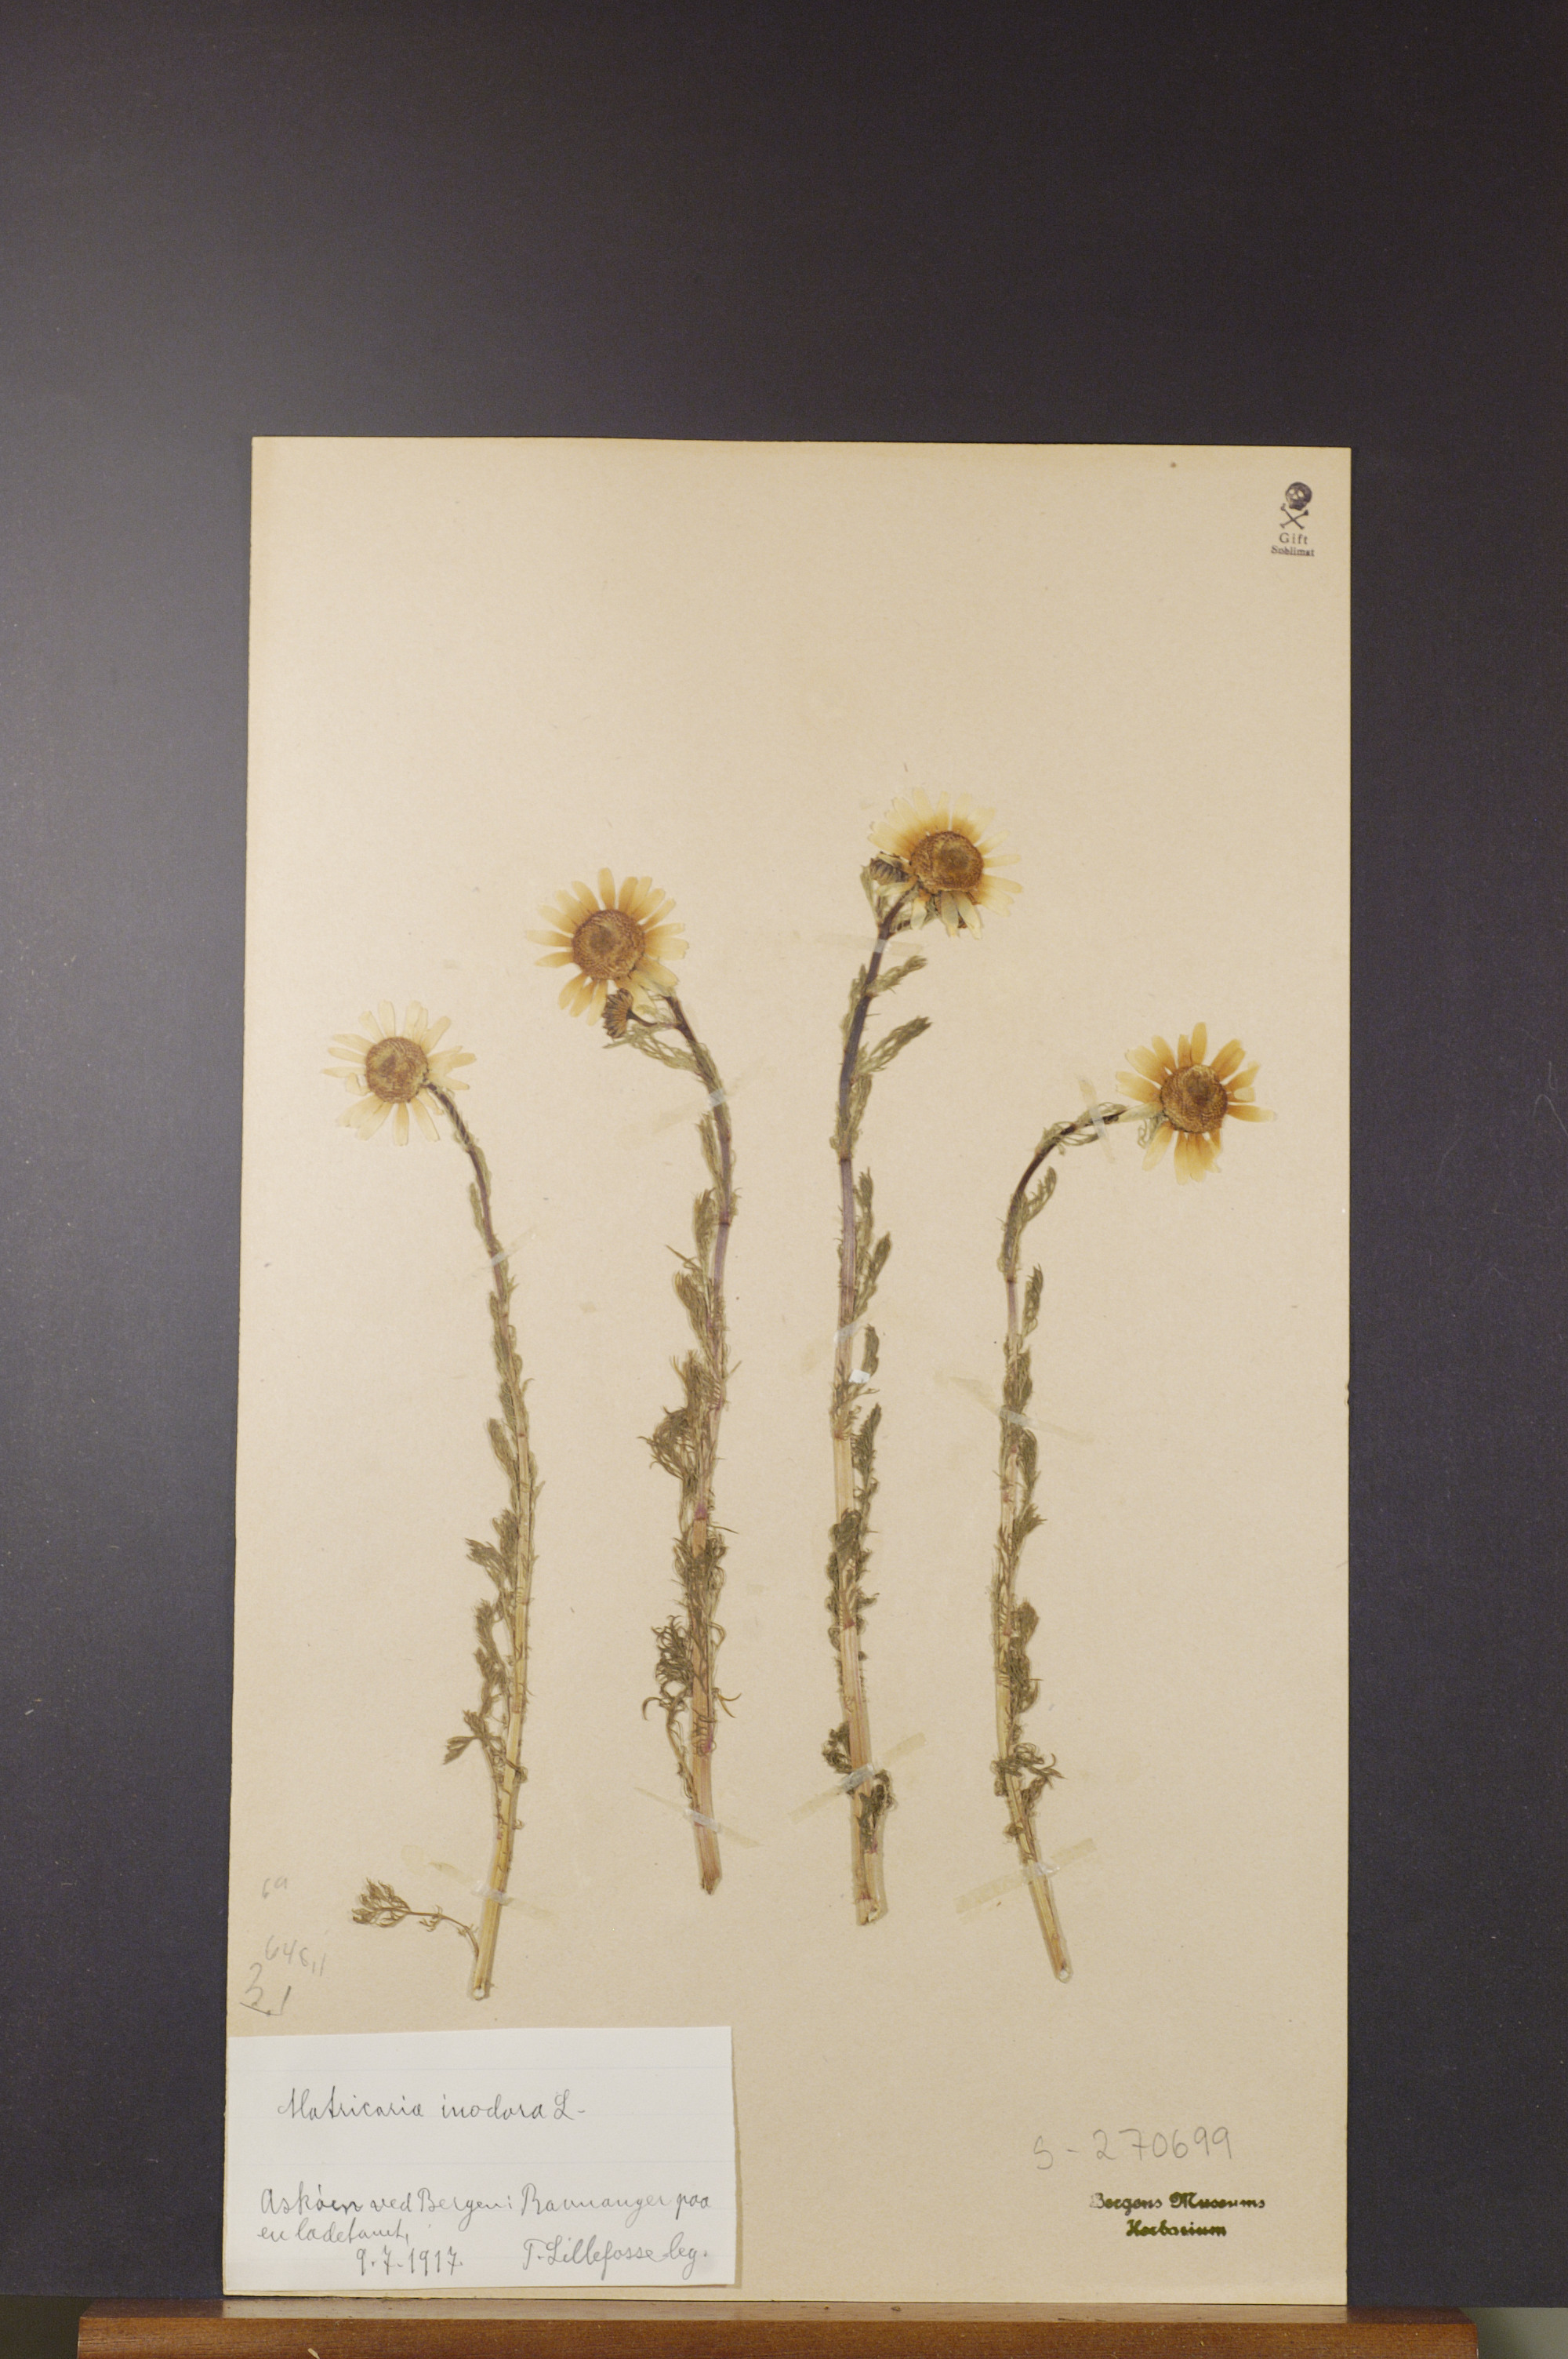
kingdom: Plantae
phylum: Tracheophyta
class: Magnoliopsida
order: Asterales
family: Asteraceae
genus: Tripleurospermum
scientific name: Tripleurospermum inodorum
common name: Scentless mayweed
